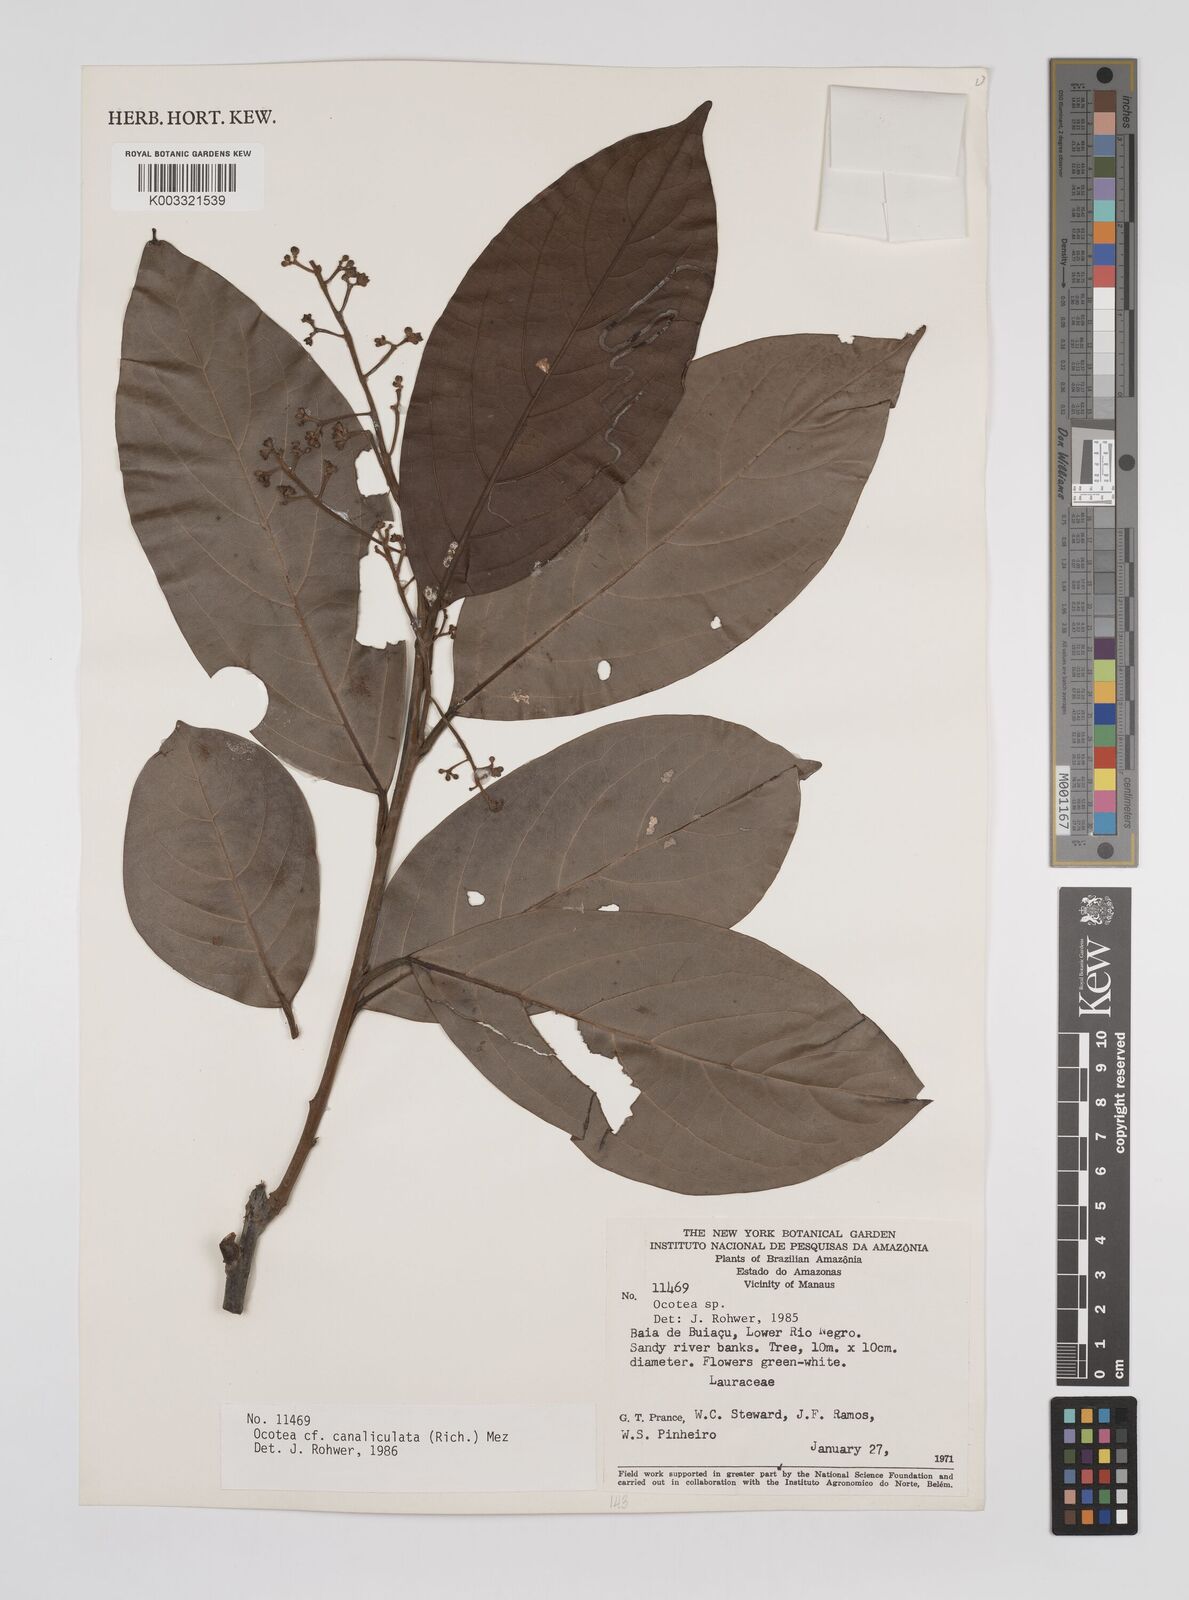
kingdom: Plantae
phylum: Tracheophyta
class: Magnoliopsida
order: Laurales
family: Lauraceae
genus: Ocotea
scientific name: Ocotea canaliculata
